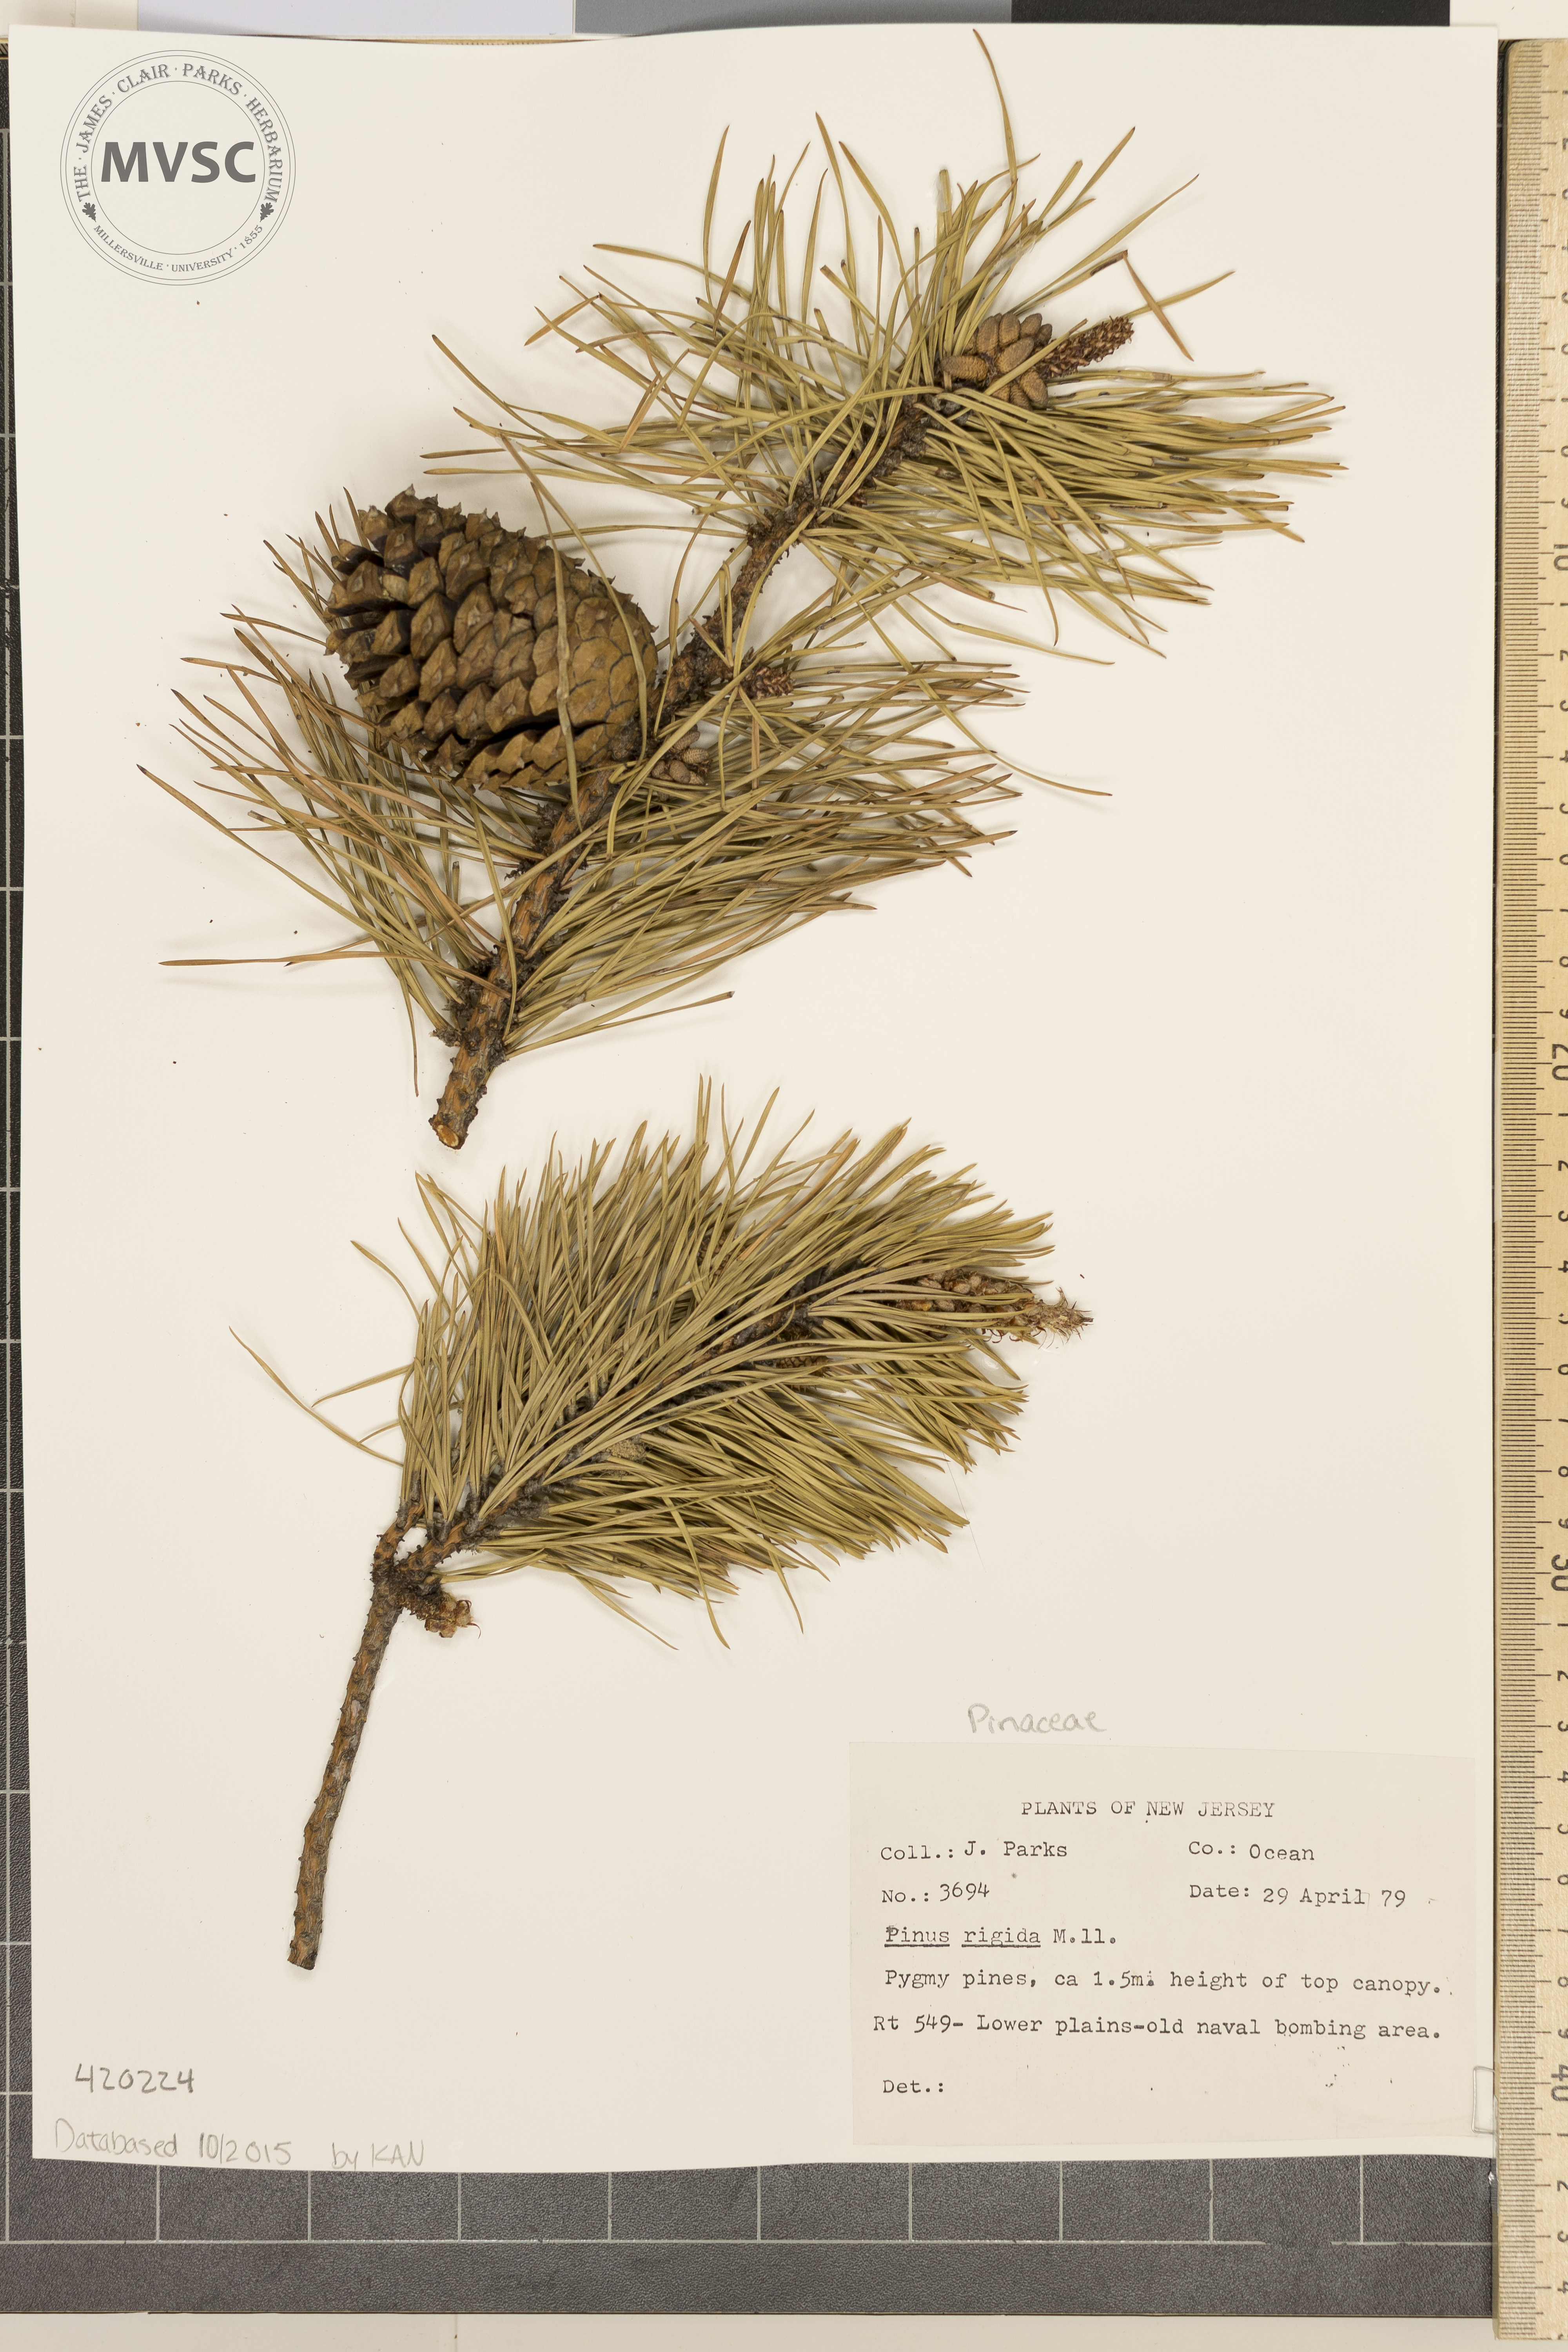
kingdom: Plantae
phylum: Tracheophyta
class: Pinopsida
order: Pinales
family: Pinaceae
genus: Pinus
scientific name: Pinus rigida
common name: Pitch Pine
